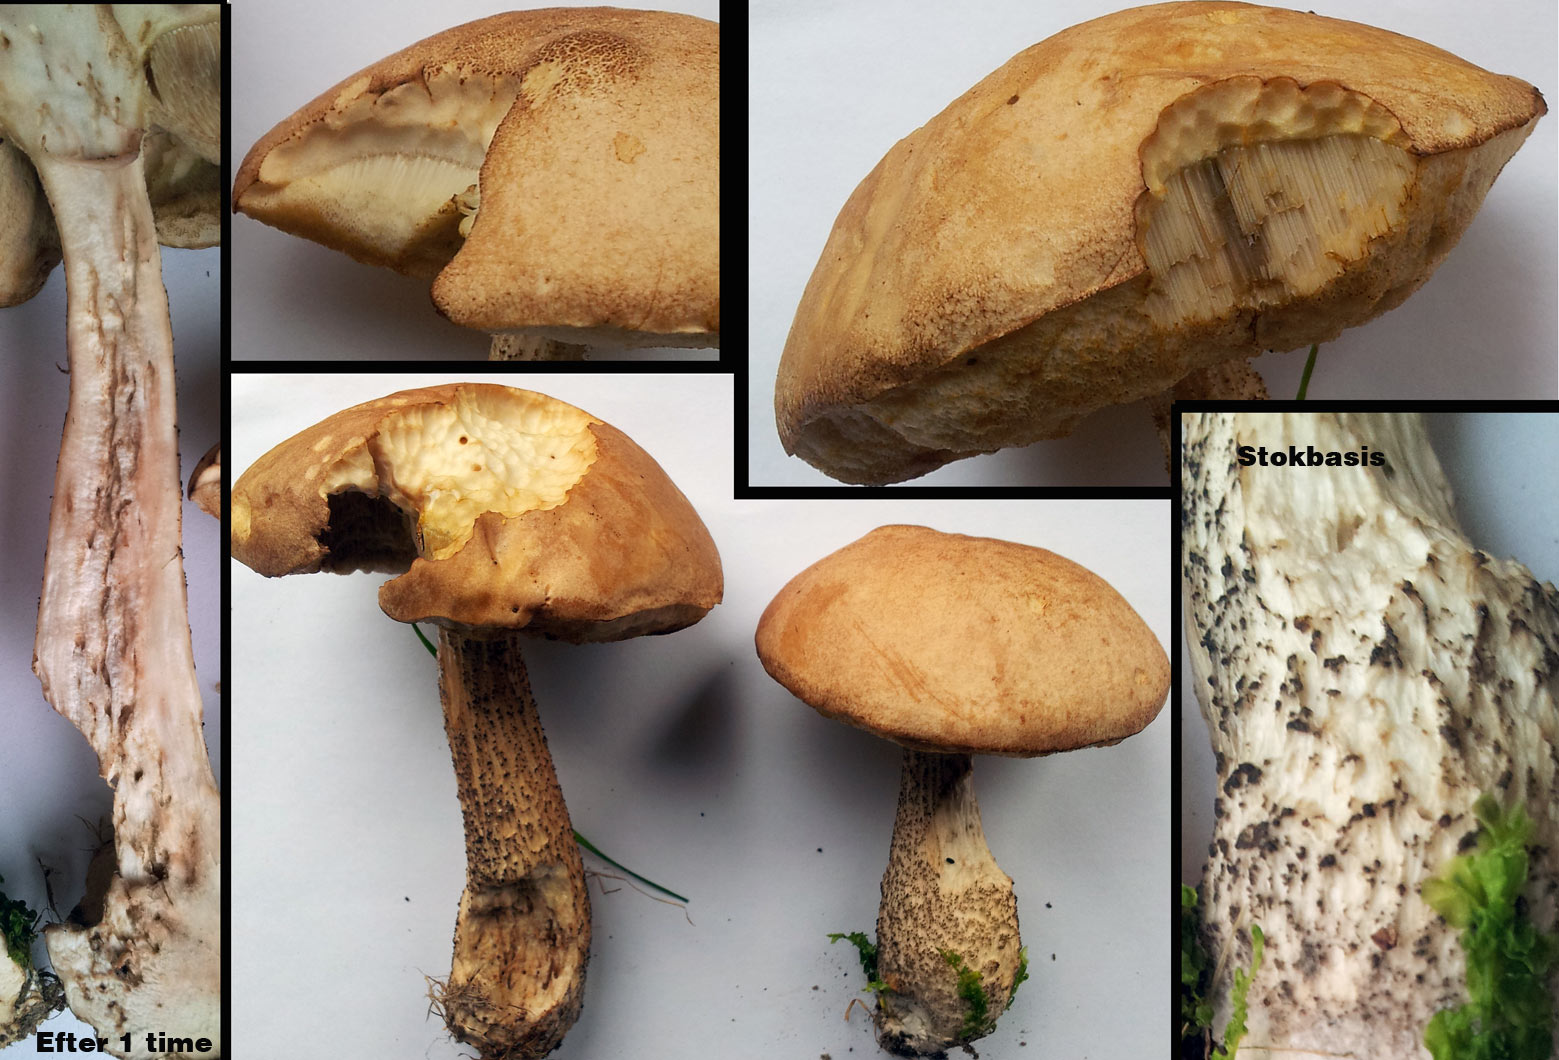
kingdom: Fungi
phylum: Basidiomycota
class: Agaricomycetes
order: Boletales
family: Boletaceae
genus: Leccinum
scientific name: Leccinum scabrum
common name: brun skælrørhat
